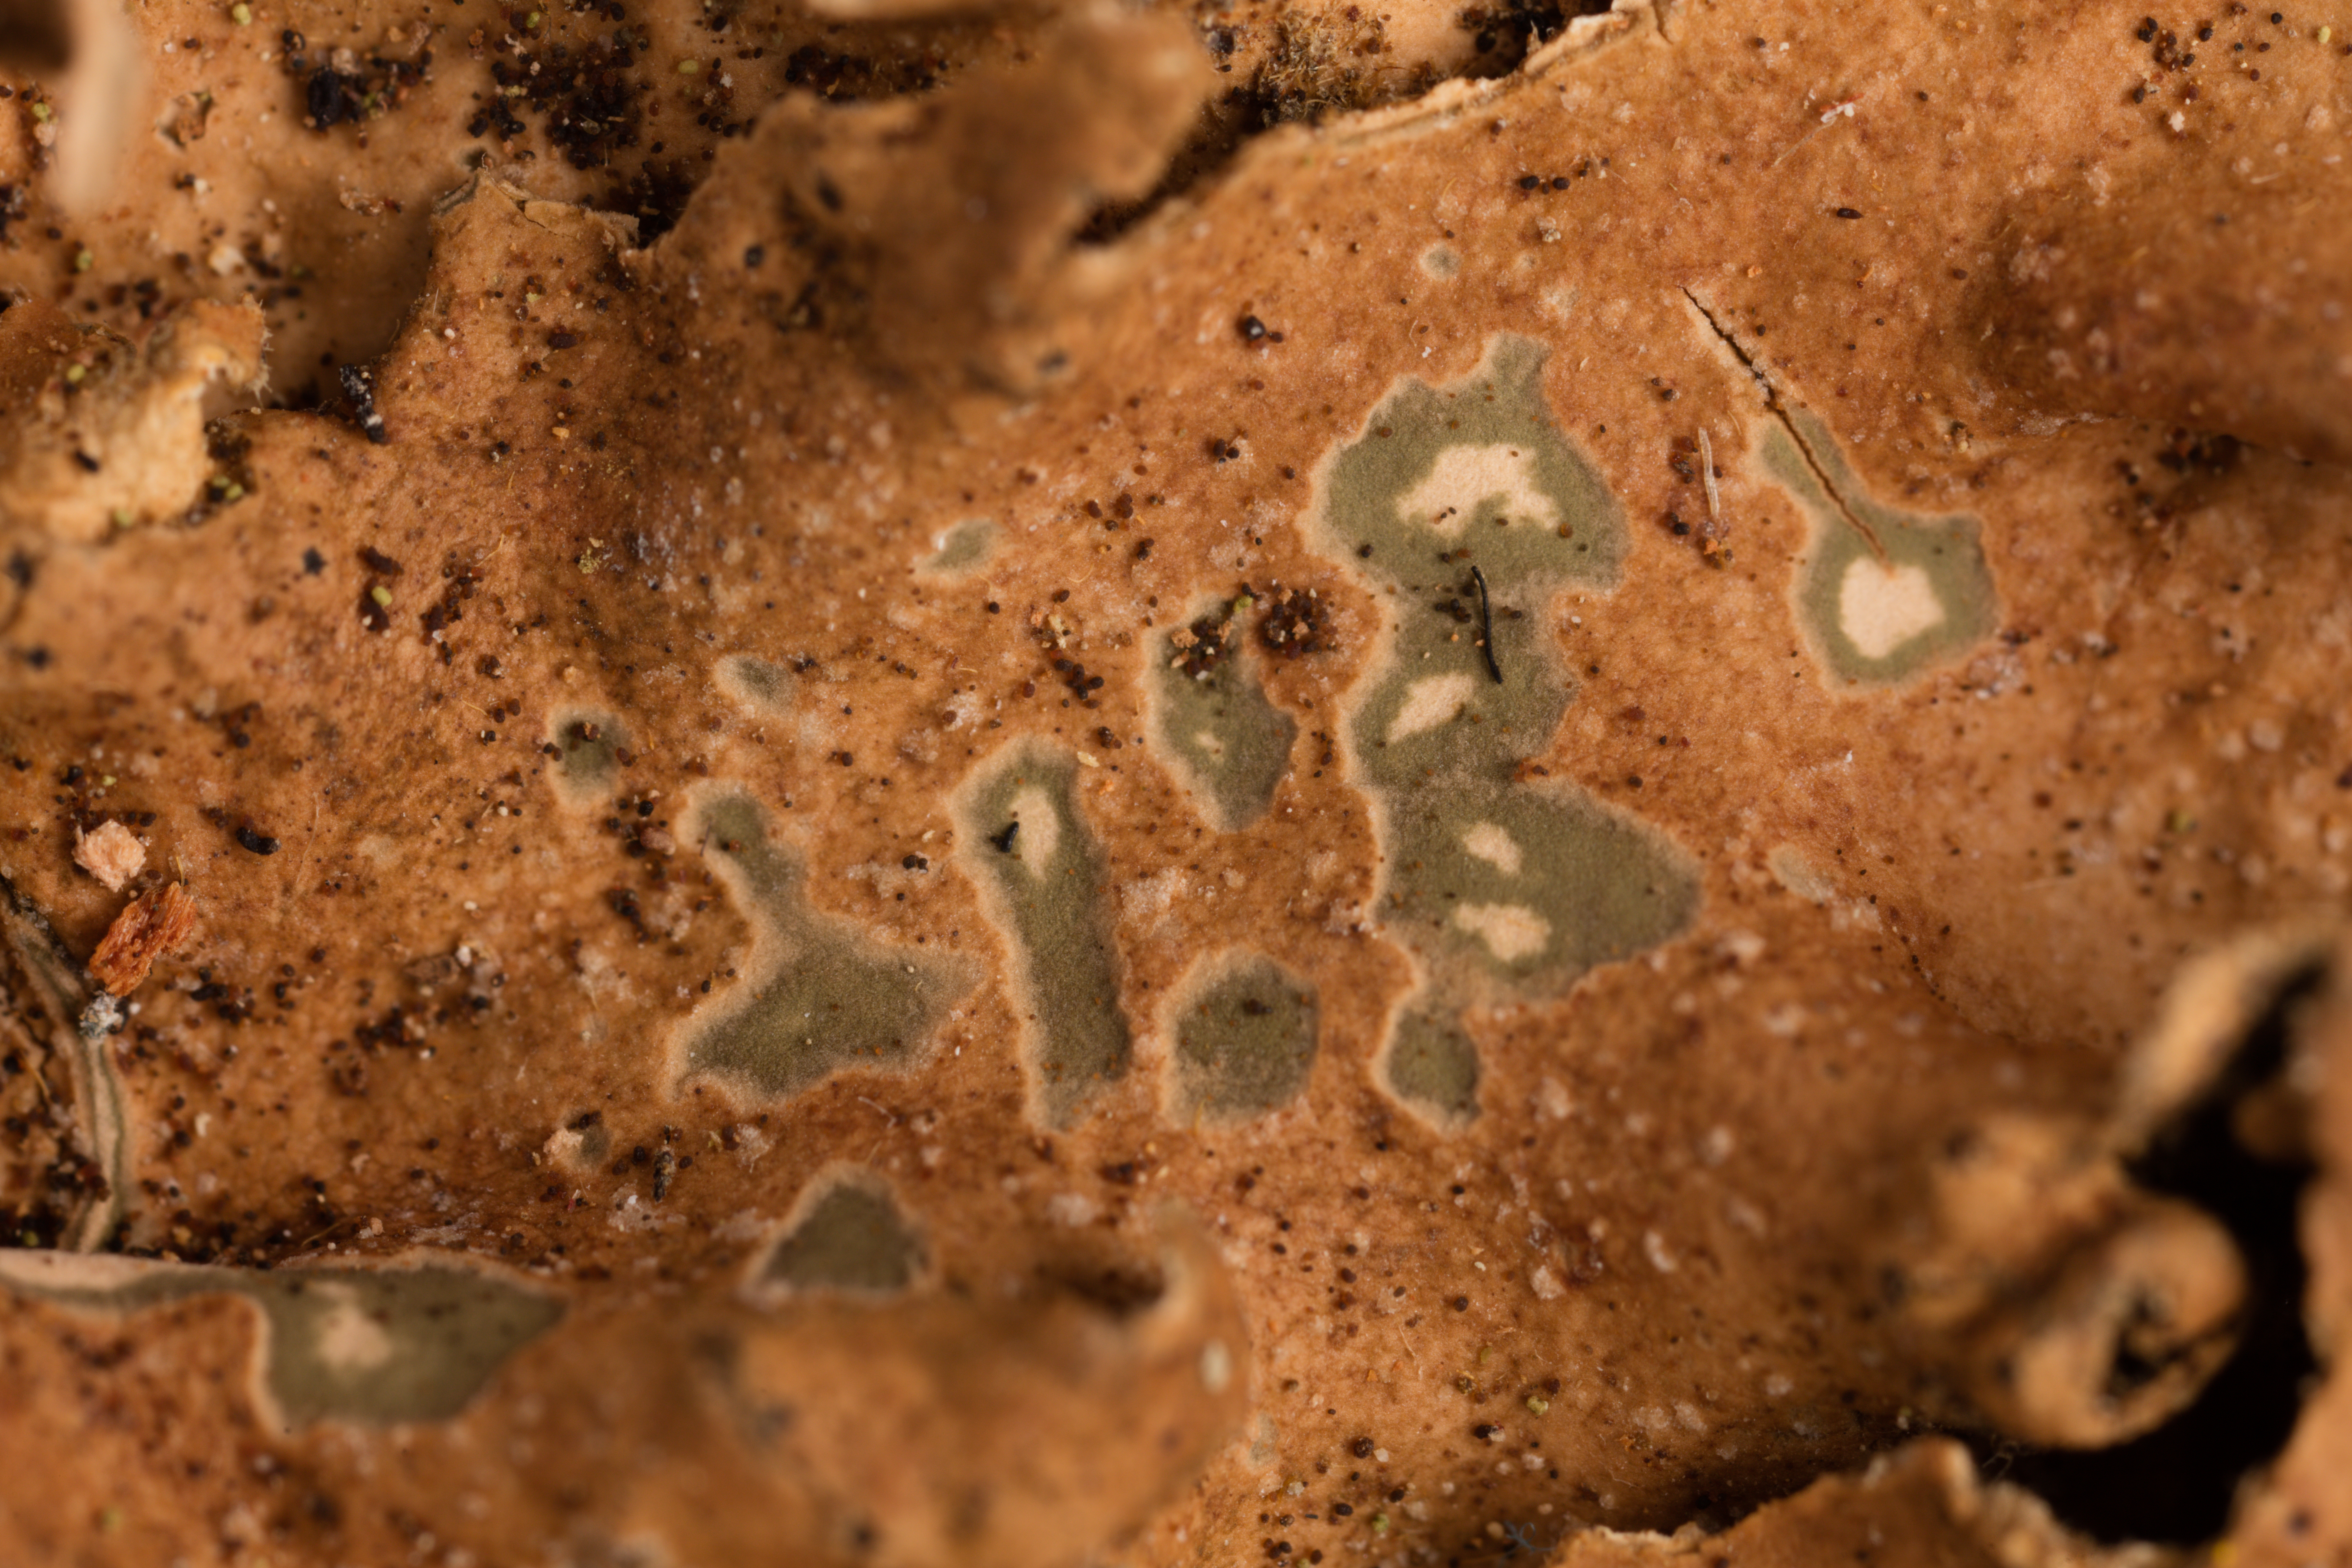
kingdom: Fungi
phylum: Ascomycota
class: Lecanoromycetes
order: Peltigerales
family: Lobariaceae
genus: Pseudocyphellaria
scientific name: Pseudocyphellaria coriacea
